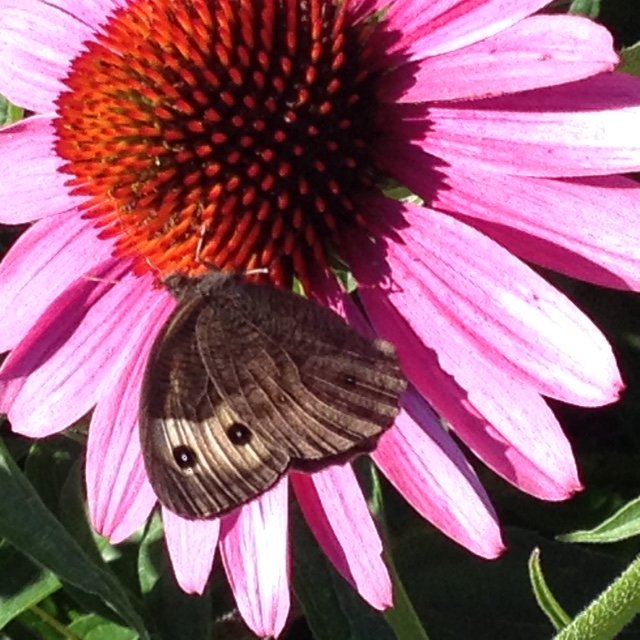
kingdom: Animalia
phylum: Arthropoda
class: Insecta
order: Lepidoptera
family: Nymphalidae
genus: Cercyonis
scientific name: Cercyonis pegala
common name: Common Wood-Nymph
